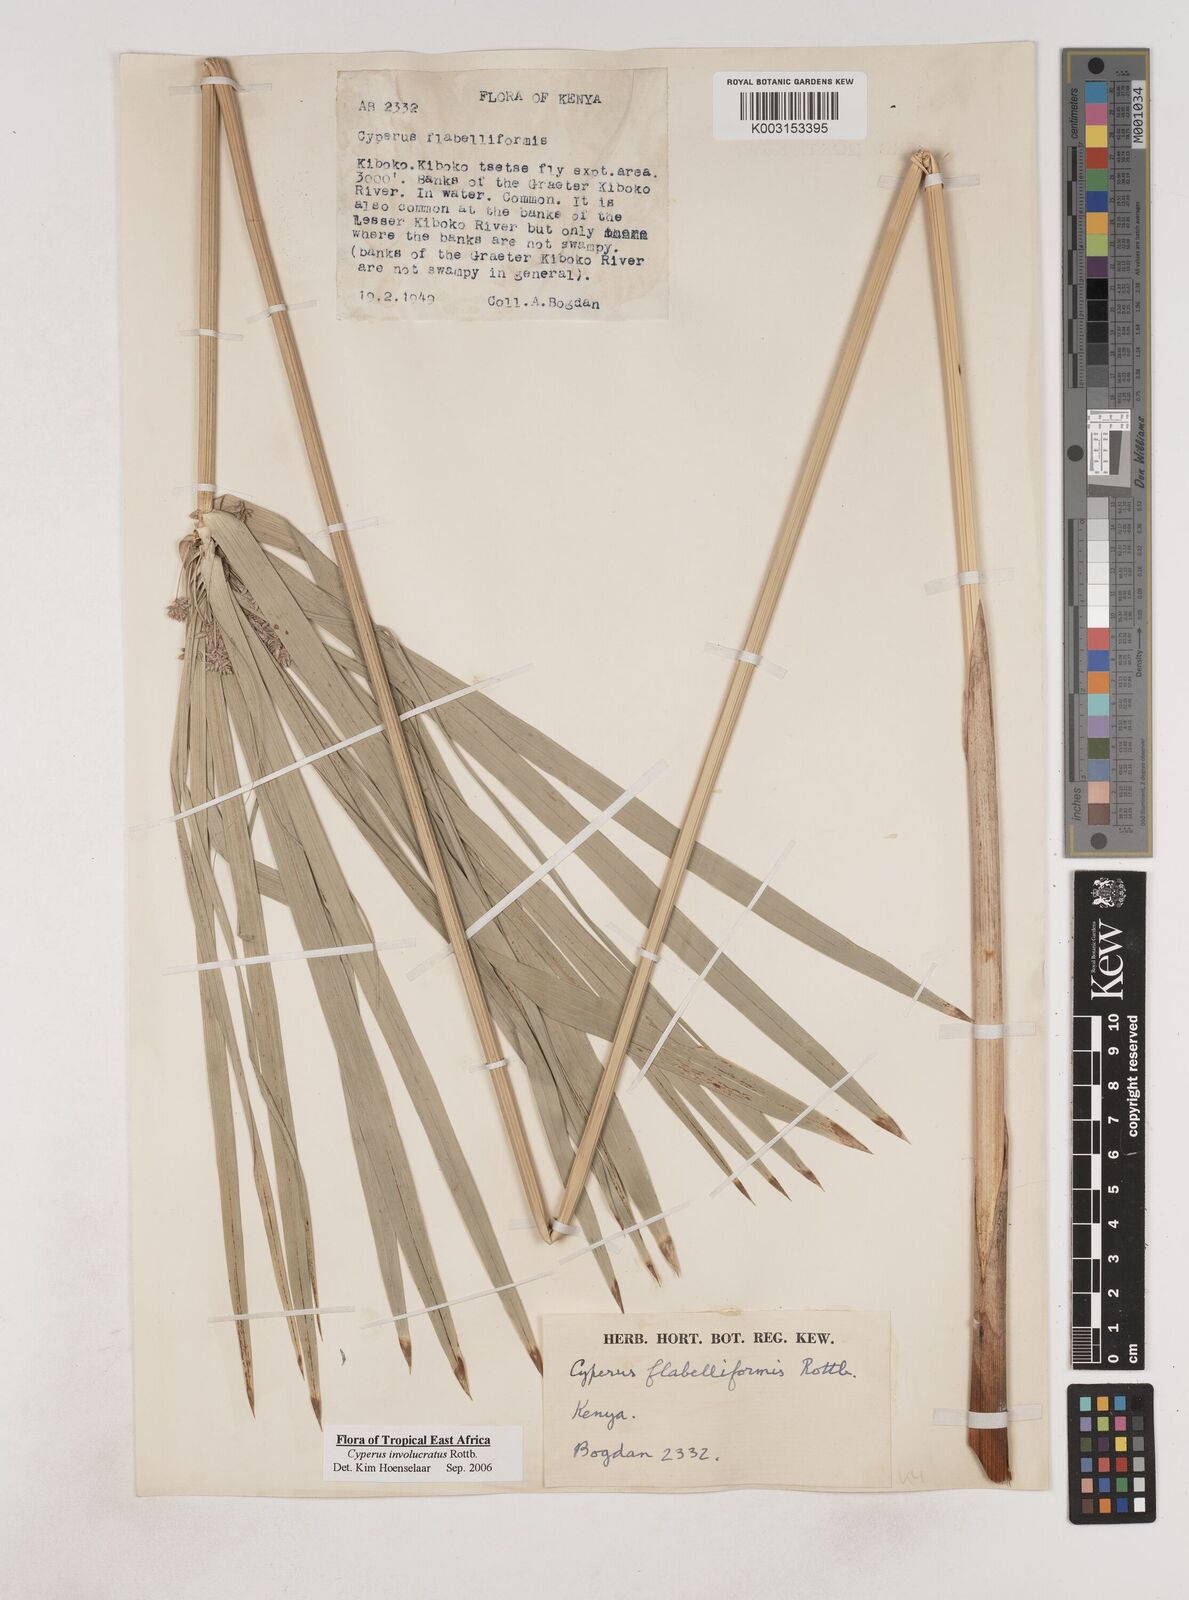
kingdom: Plantae
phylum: Tracheophyta
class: Liliopsida
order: Poales
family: Cyperaceae
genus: Cyperus
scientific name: Cyperus alternifolius
